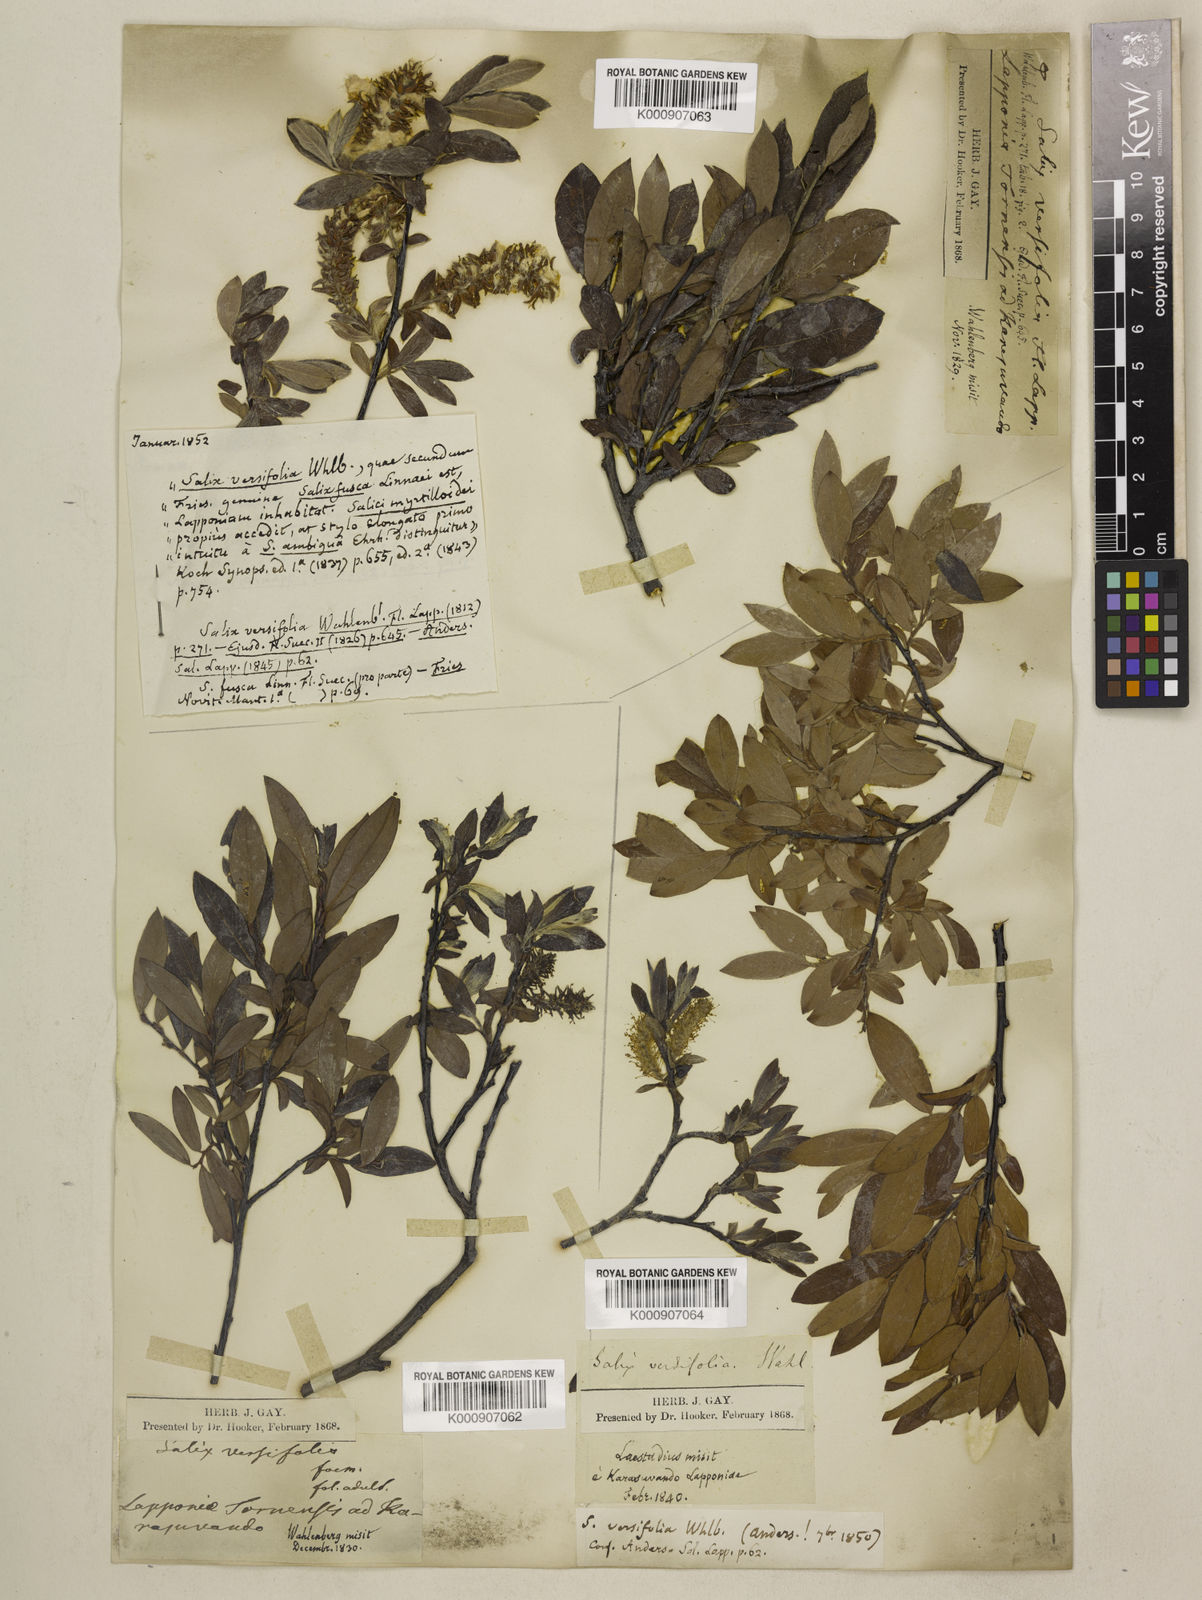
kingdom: Plantae
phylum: Tracheophyta
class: Magnoliopsida
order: Malpighiales
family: Salicaceae
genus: Salix
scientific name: Salix lapponum
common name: Downy willow
